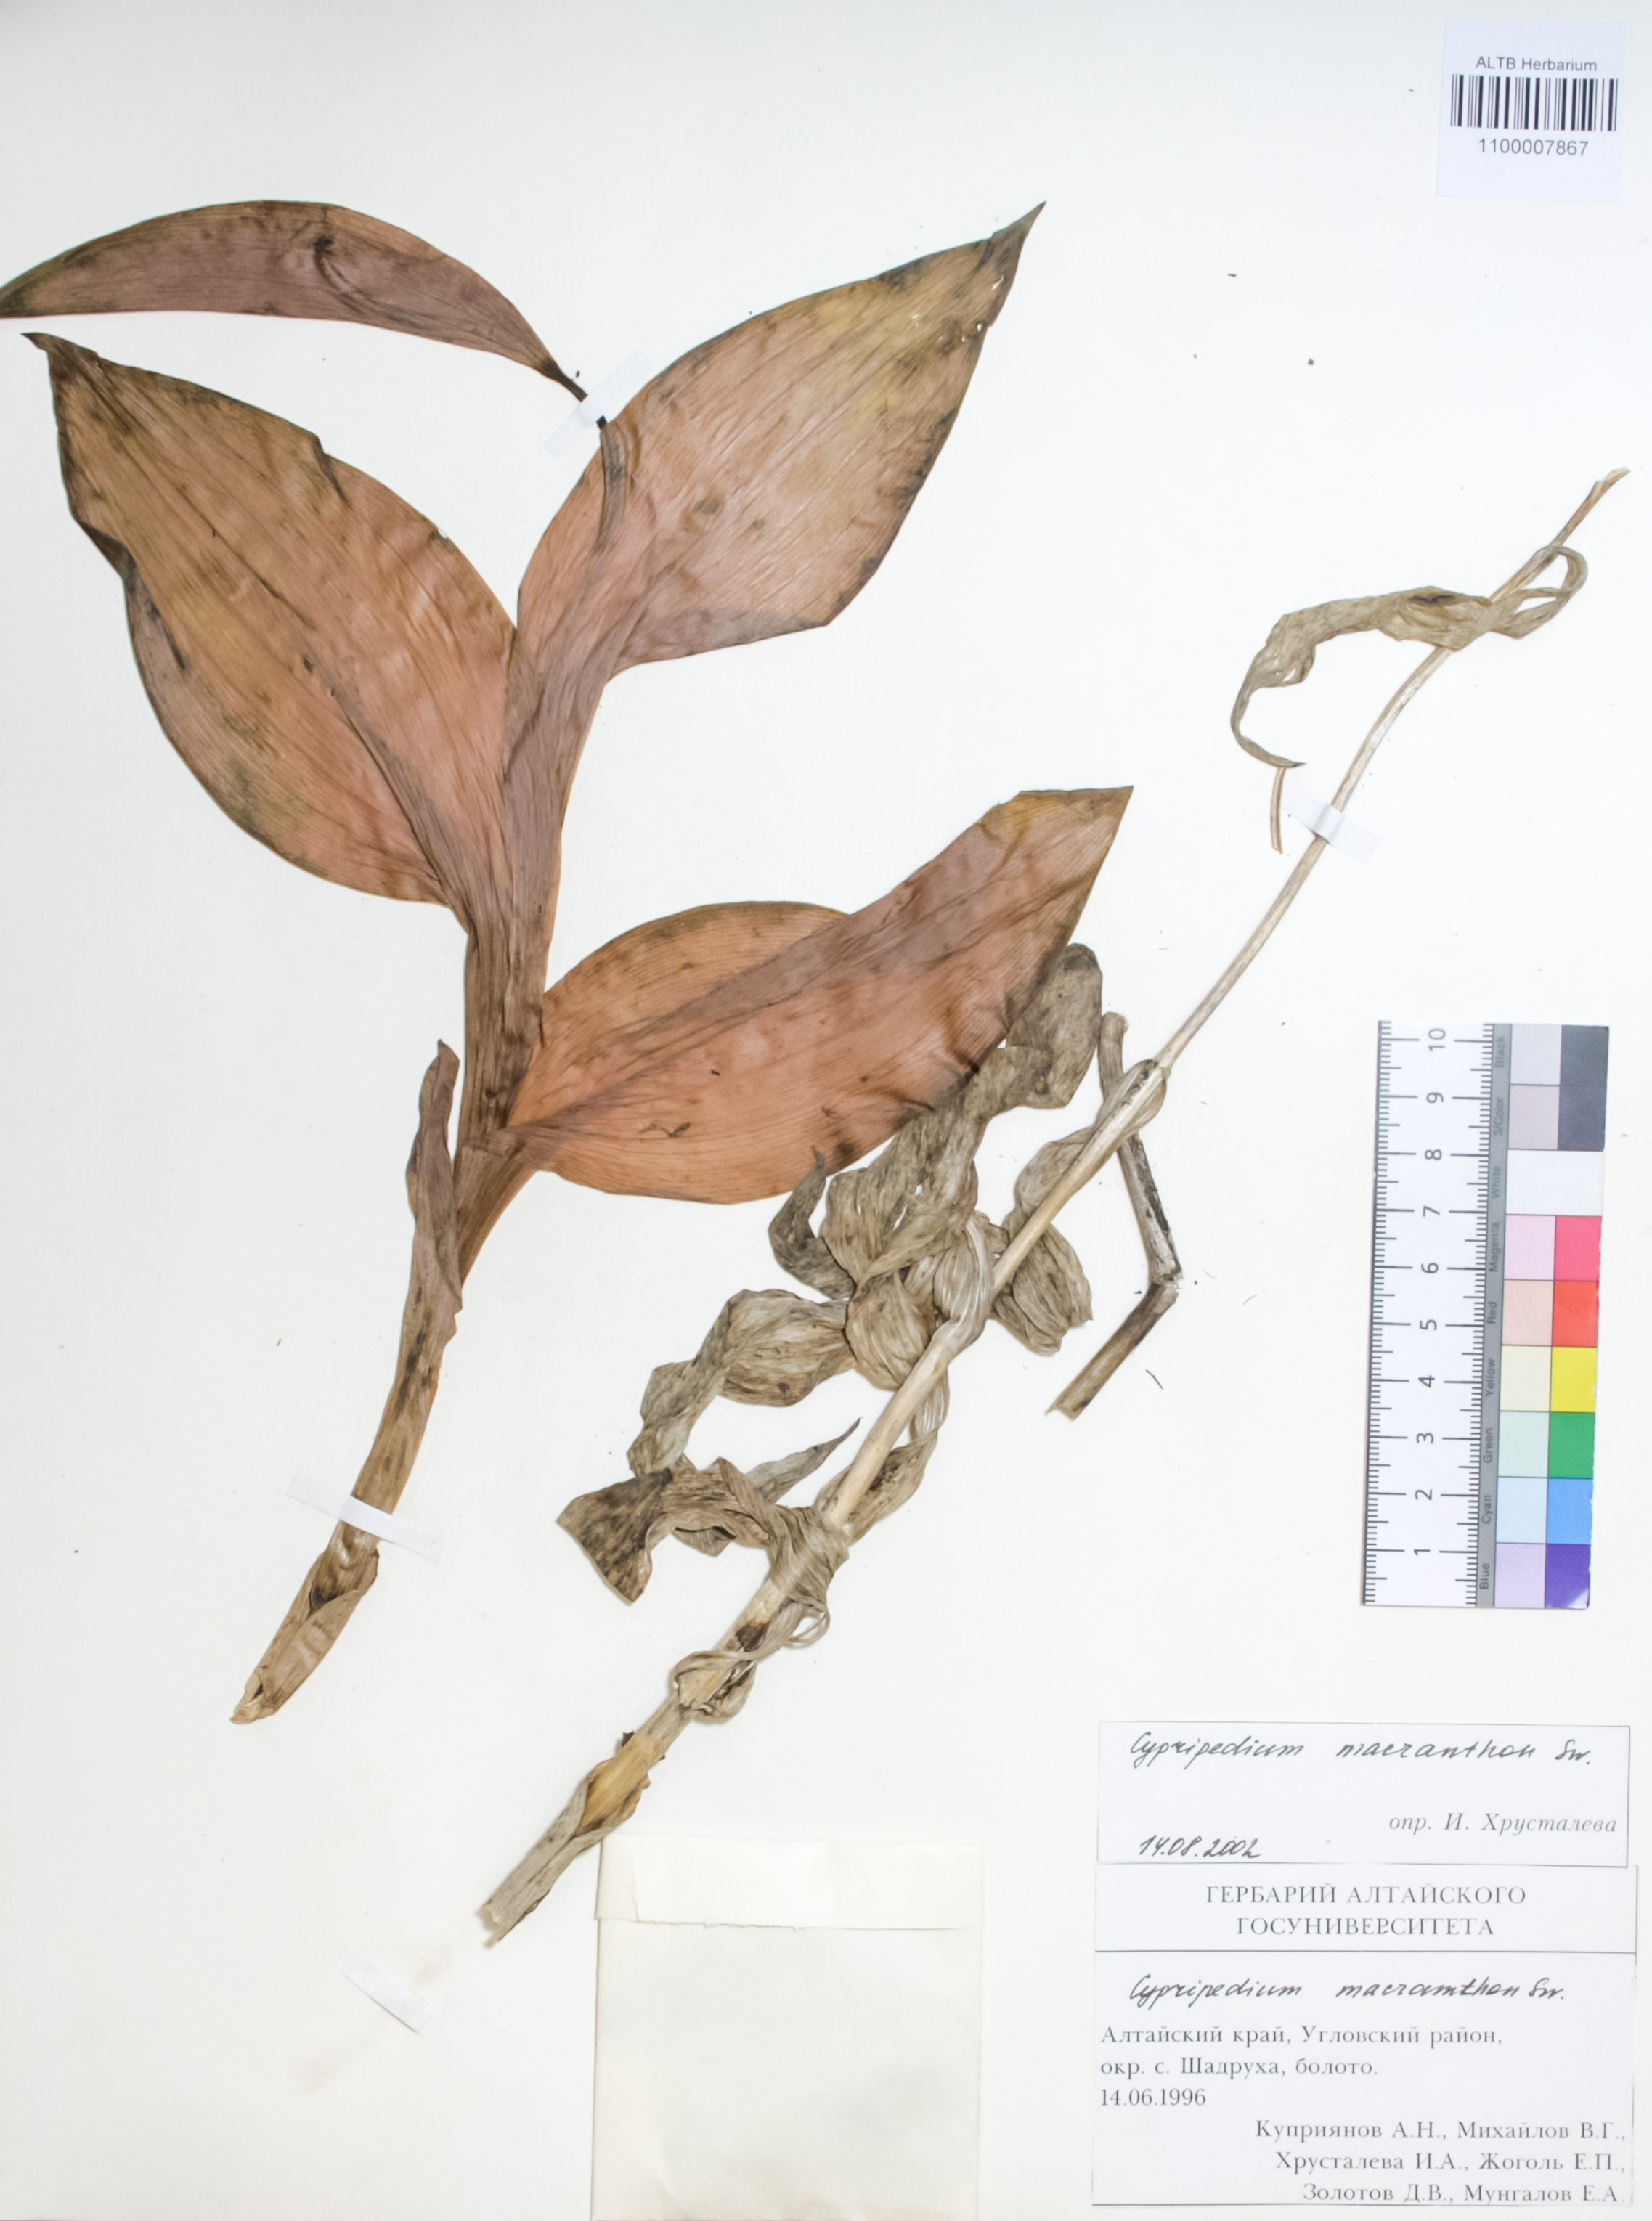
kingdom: Plantae
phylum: Tracheophyta
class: Liliopsida
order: Asparagales
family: Orchidaceae
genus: Cypripedium
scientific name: Cypripedium macranthon
